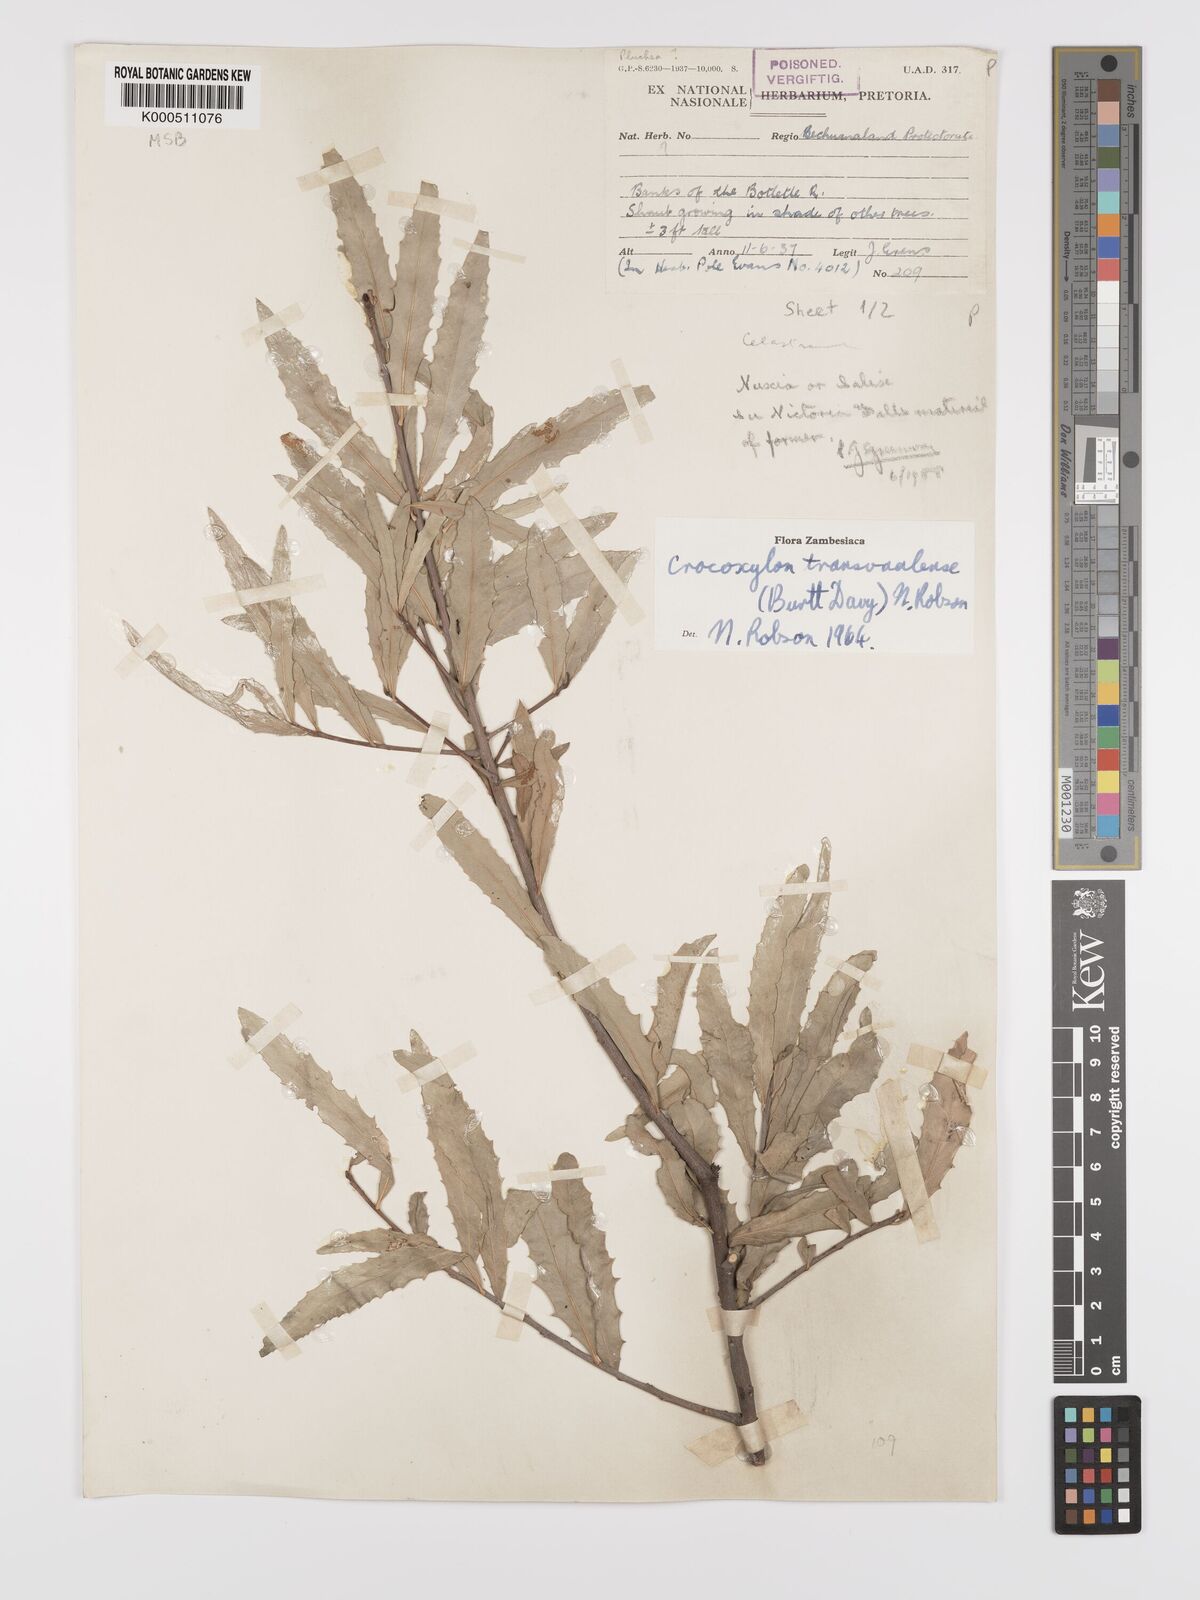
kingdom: Plantae
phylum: Tracheophyta
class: Magnoliopsida
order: Celastrales
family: Celastraceae
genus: Elaeodendron
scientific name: Elaeodendron transvaalense
